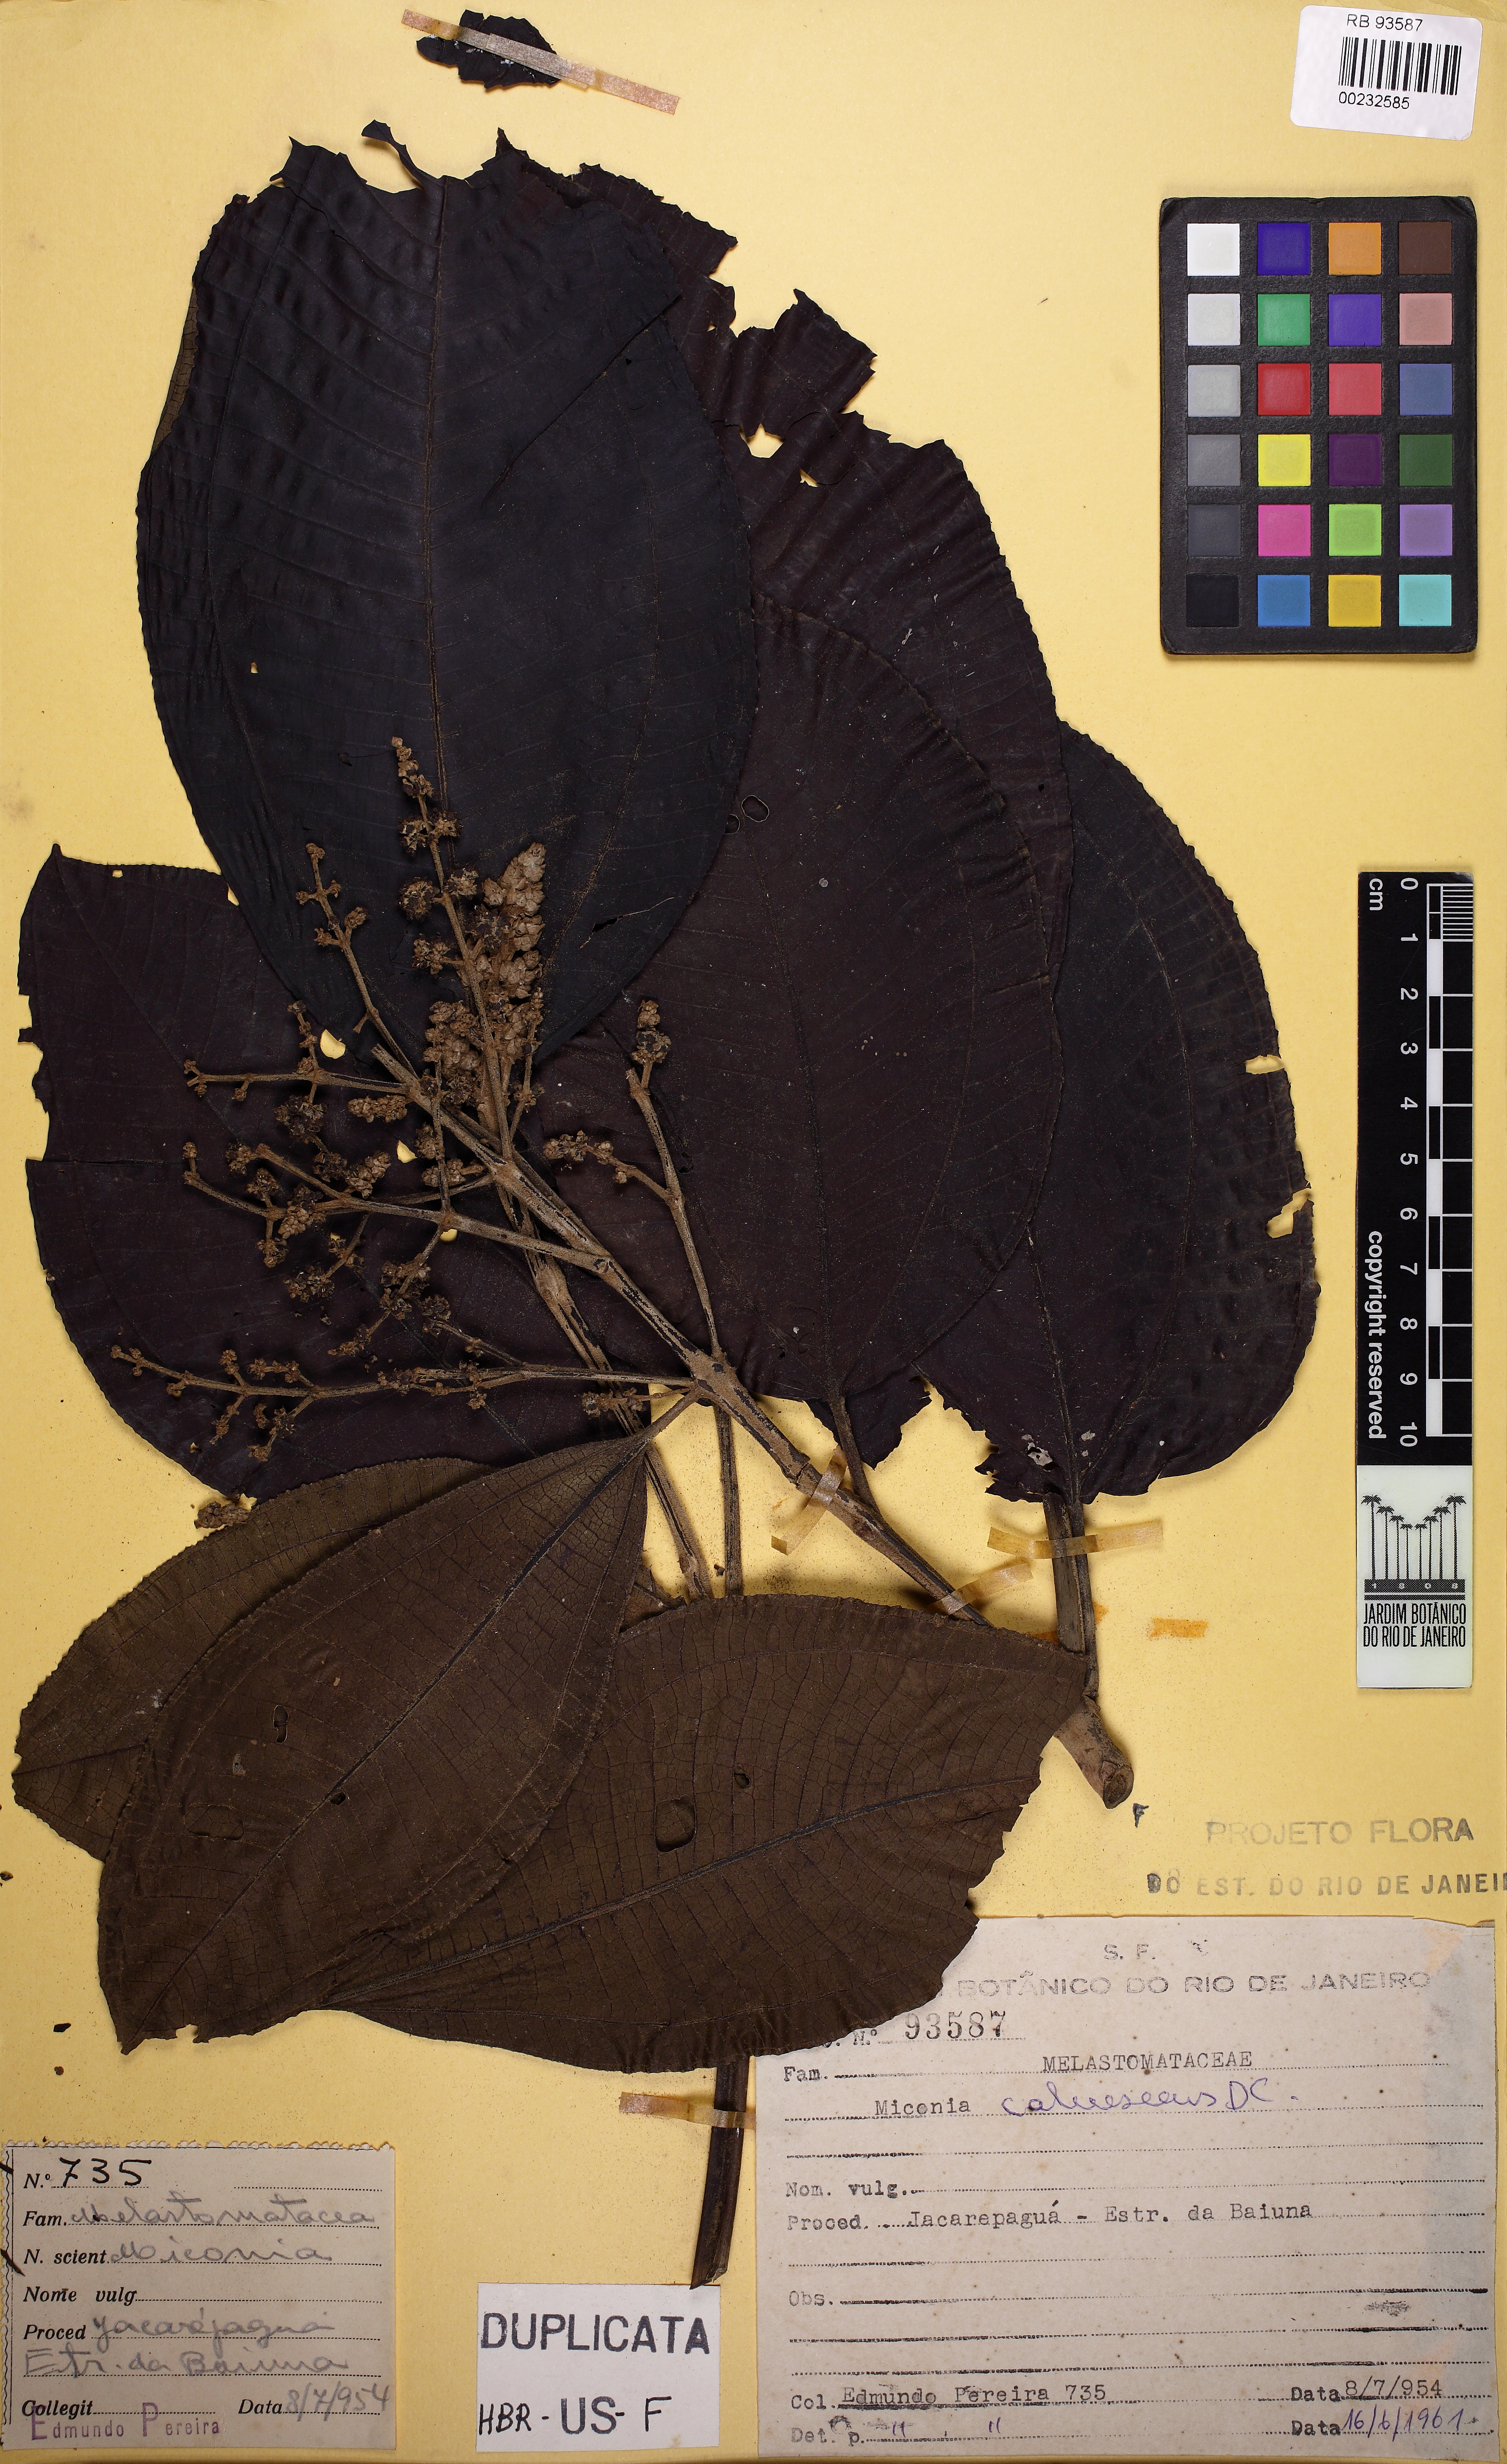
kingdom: Plantae
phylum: Tracheophyta
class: Magnoliopsida
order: Myrtales
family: Melastomataceae
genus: Miconia
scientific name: Miconia calvescens
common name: Purple plague
